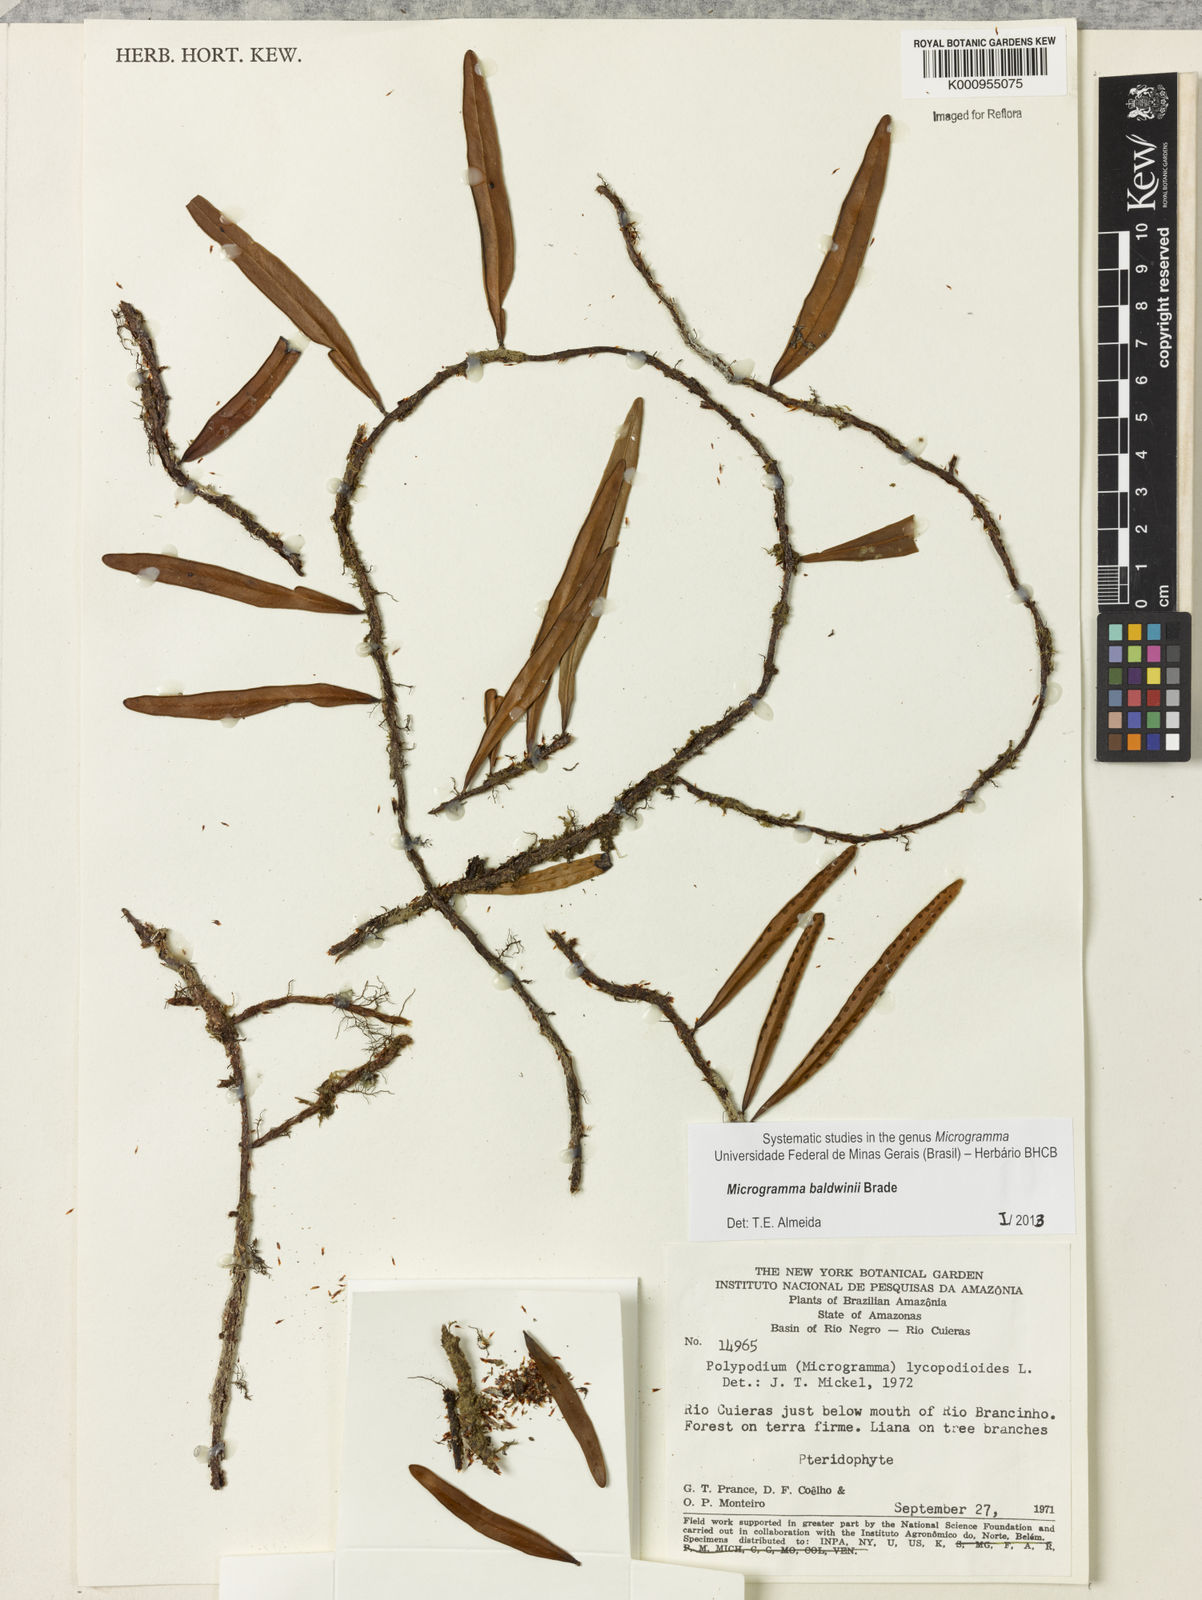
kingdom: Plantae
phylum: Tracheophyta
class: Polypodiopsida
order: Polypodiales
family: Polypodiaceae
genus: Microgramma
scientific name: Microgramma baldwinii
